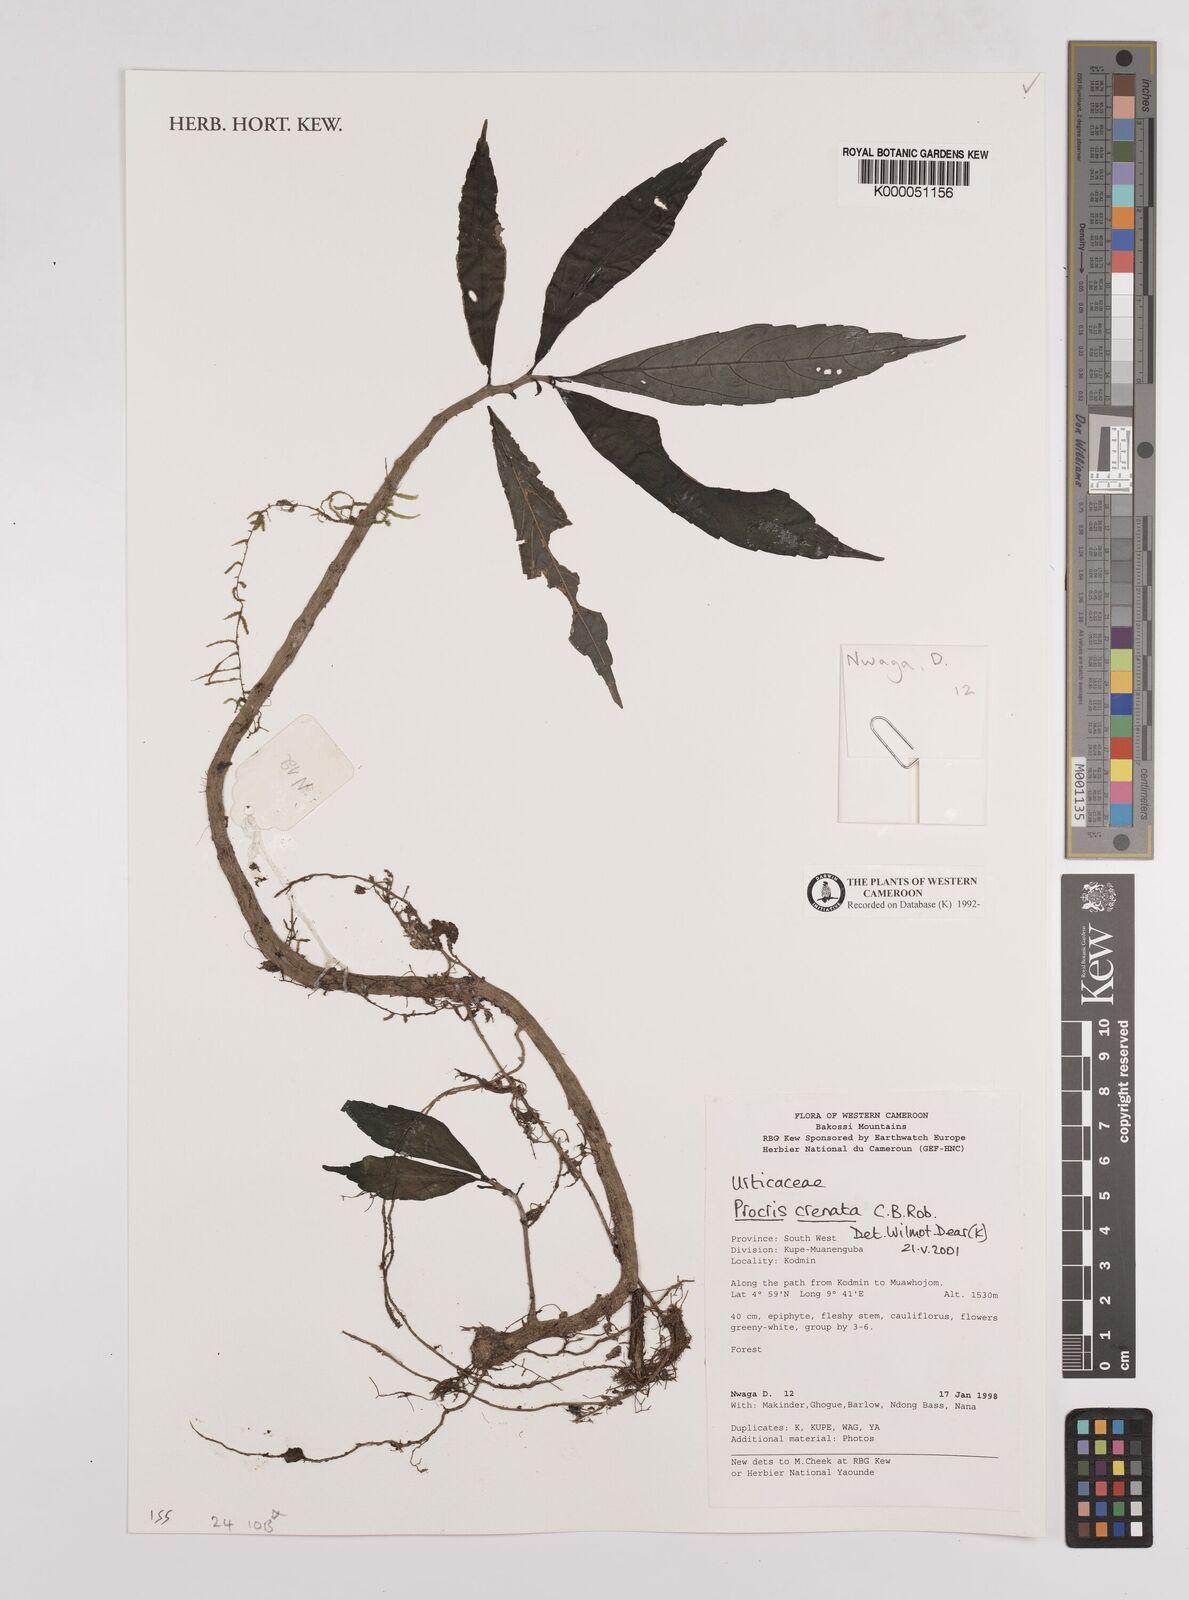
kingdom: Plantae
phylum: Tracheophyta
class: Magnoliopsida
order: Rosales
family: Urticaceae
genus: Procris
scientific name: Procris crenata
